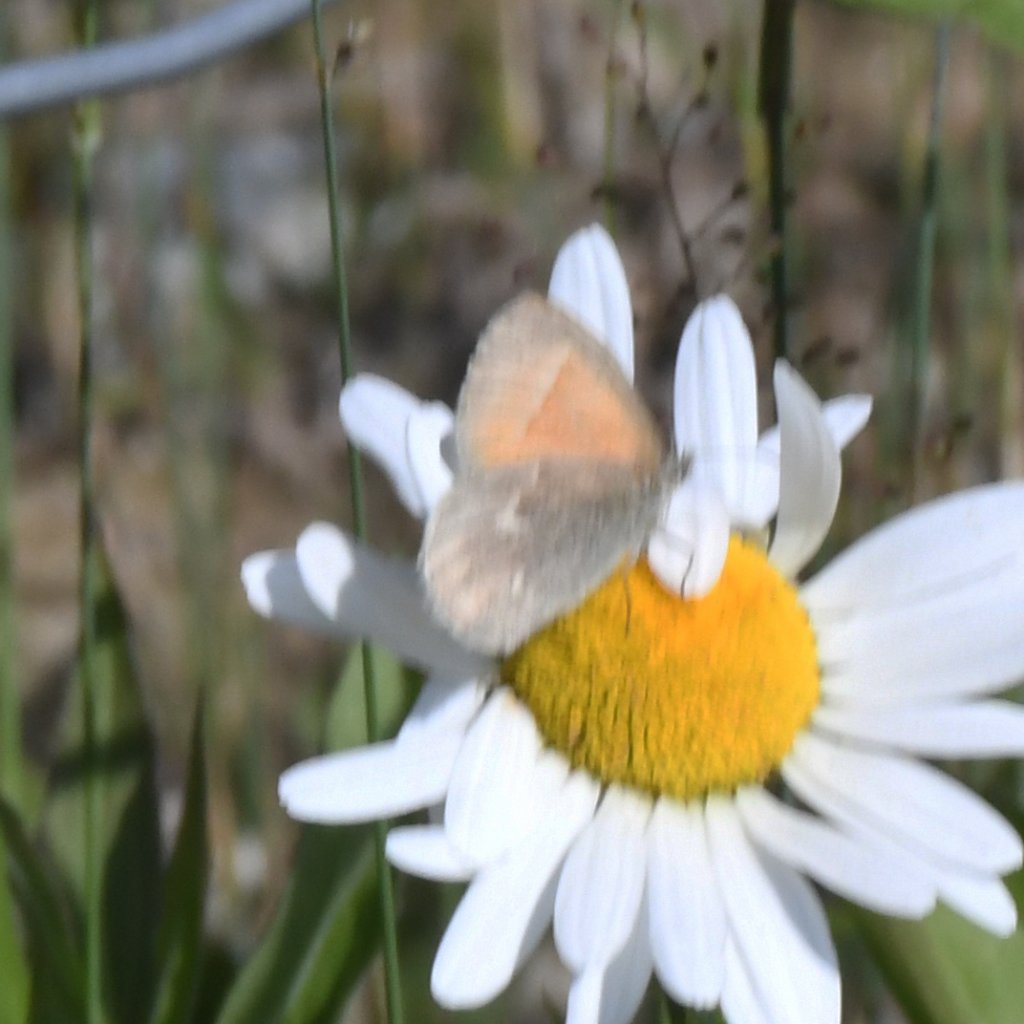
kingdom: Animalia
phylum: Arthropoda
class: Insecta
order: Lepidoptera
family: Nymphalidae
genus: Coenonympha
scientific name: Coenonympha tullia
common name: Large Heath
